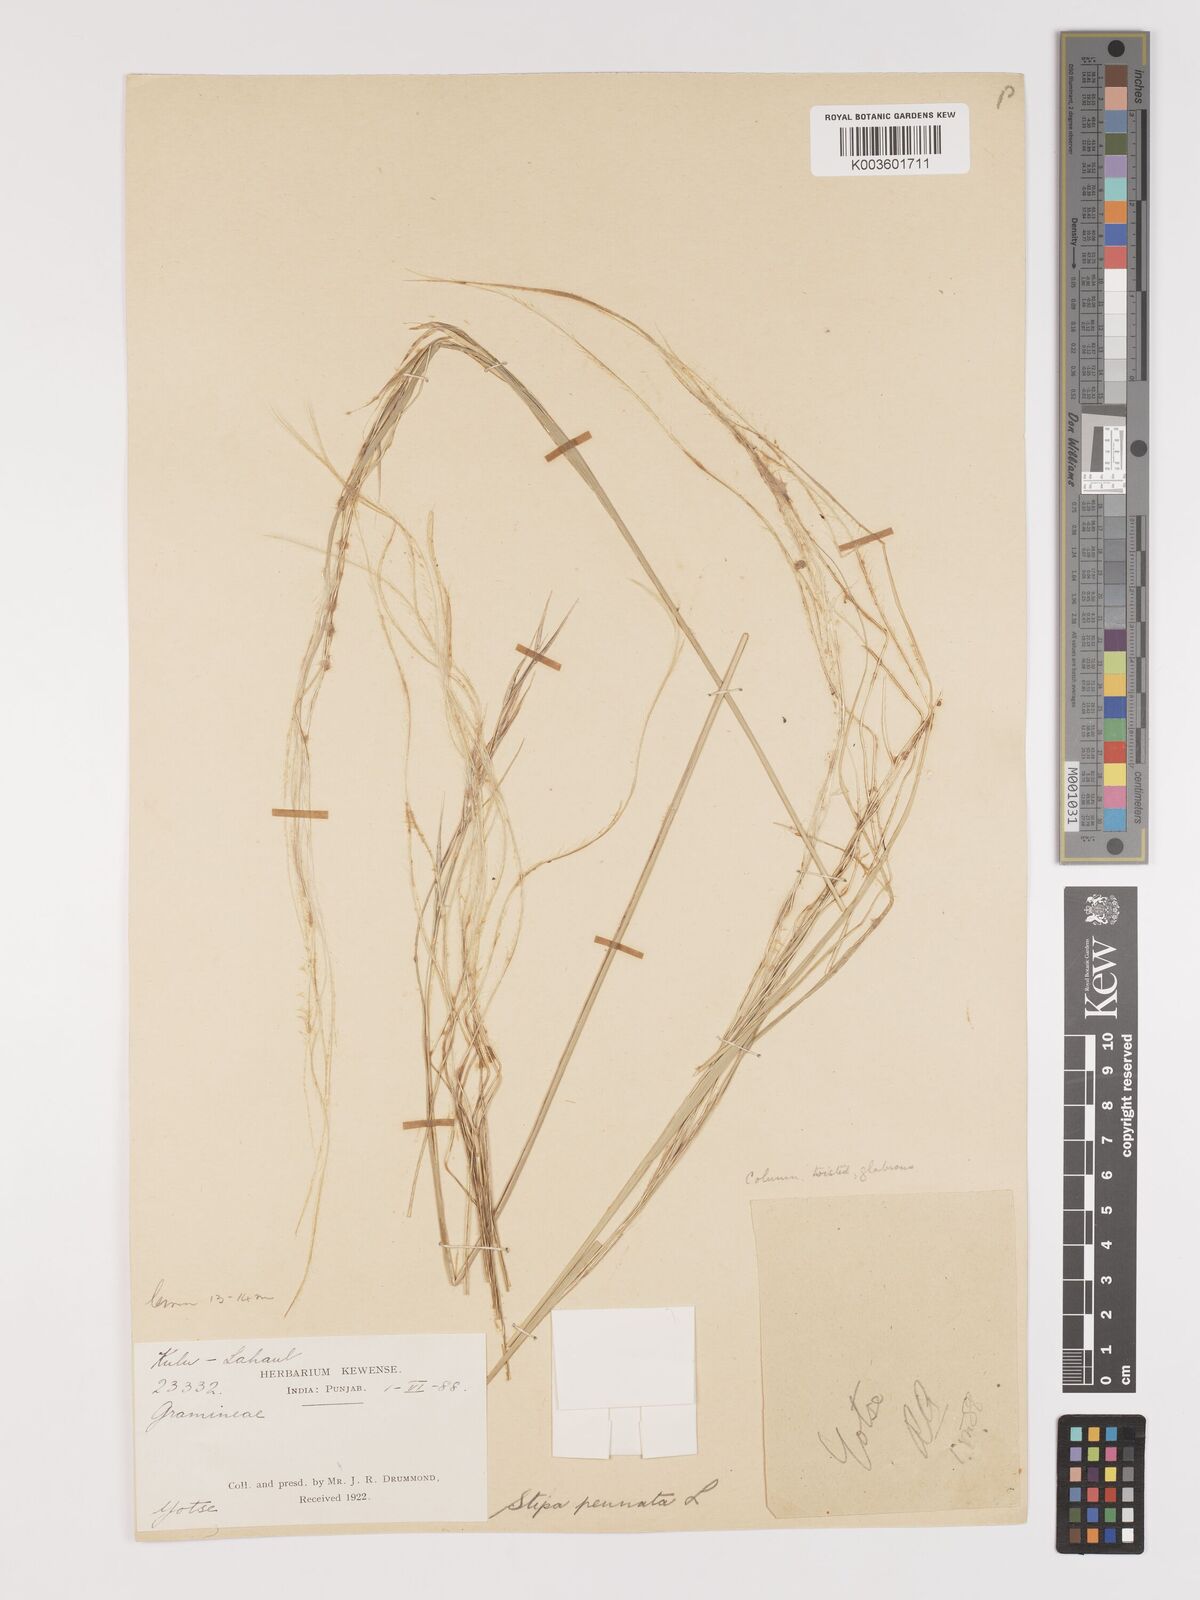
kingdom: Plantae
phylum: Tracheophyta
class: Liliopsida
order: Poales
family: Poaceae
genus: Stipa
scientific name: Stipa kirghisorum
